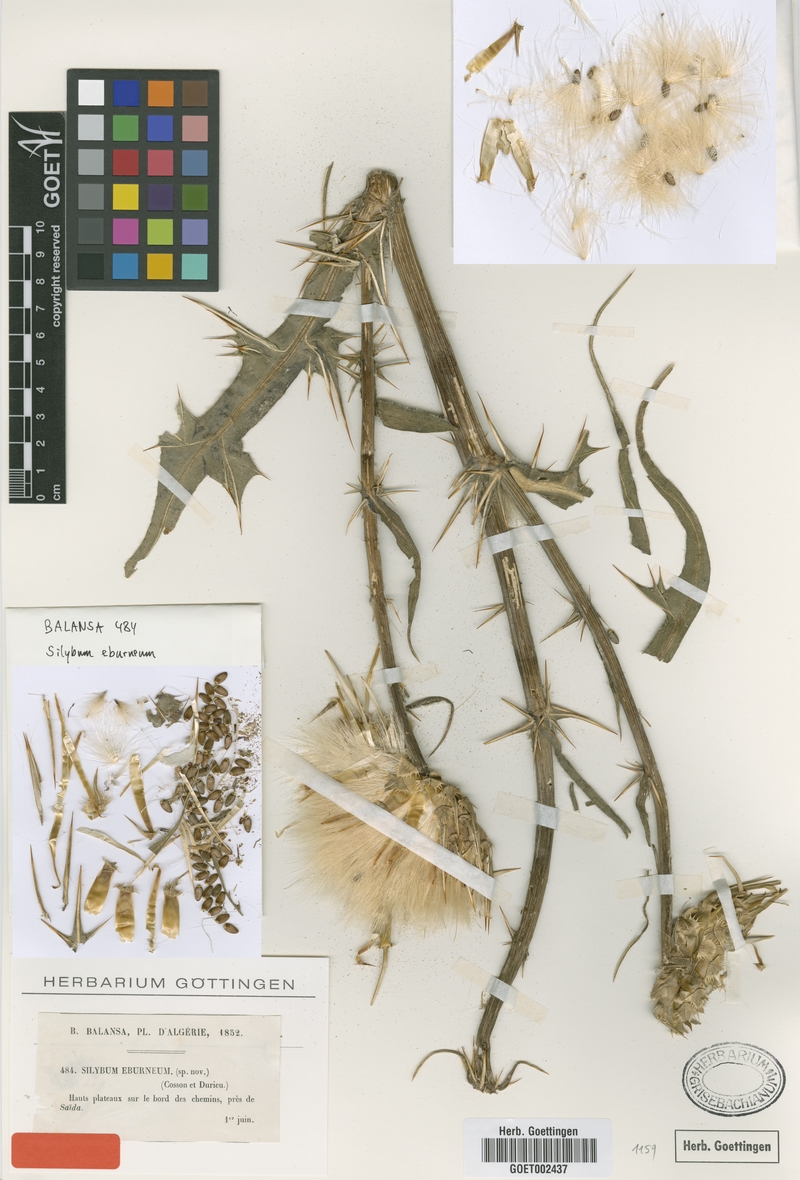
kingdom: Plantae
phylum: Tracheophyta
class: Magnoliopsida
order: Asterales
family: Asteraceae
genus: Silybum
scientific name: Silybum eburneum
